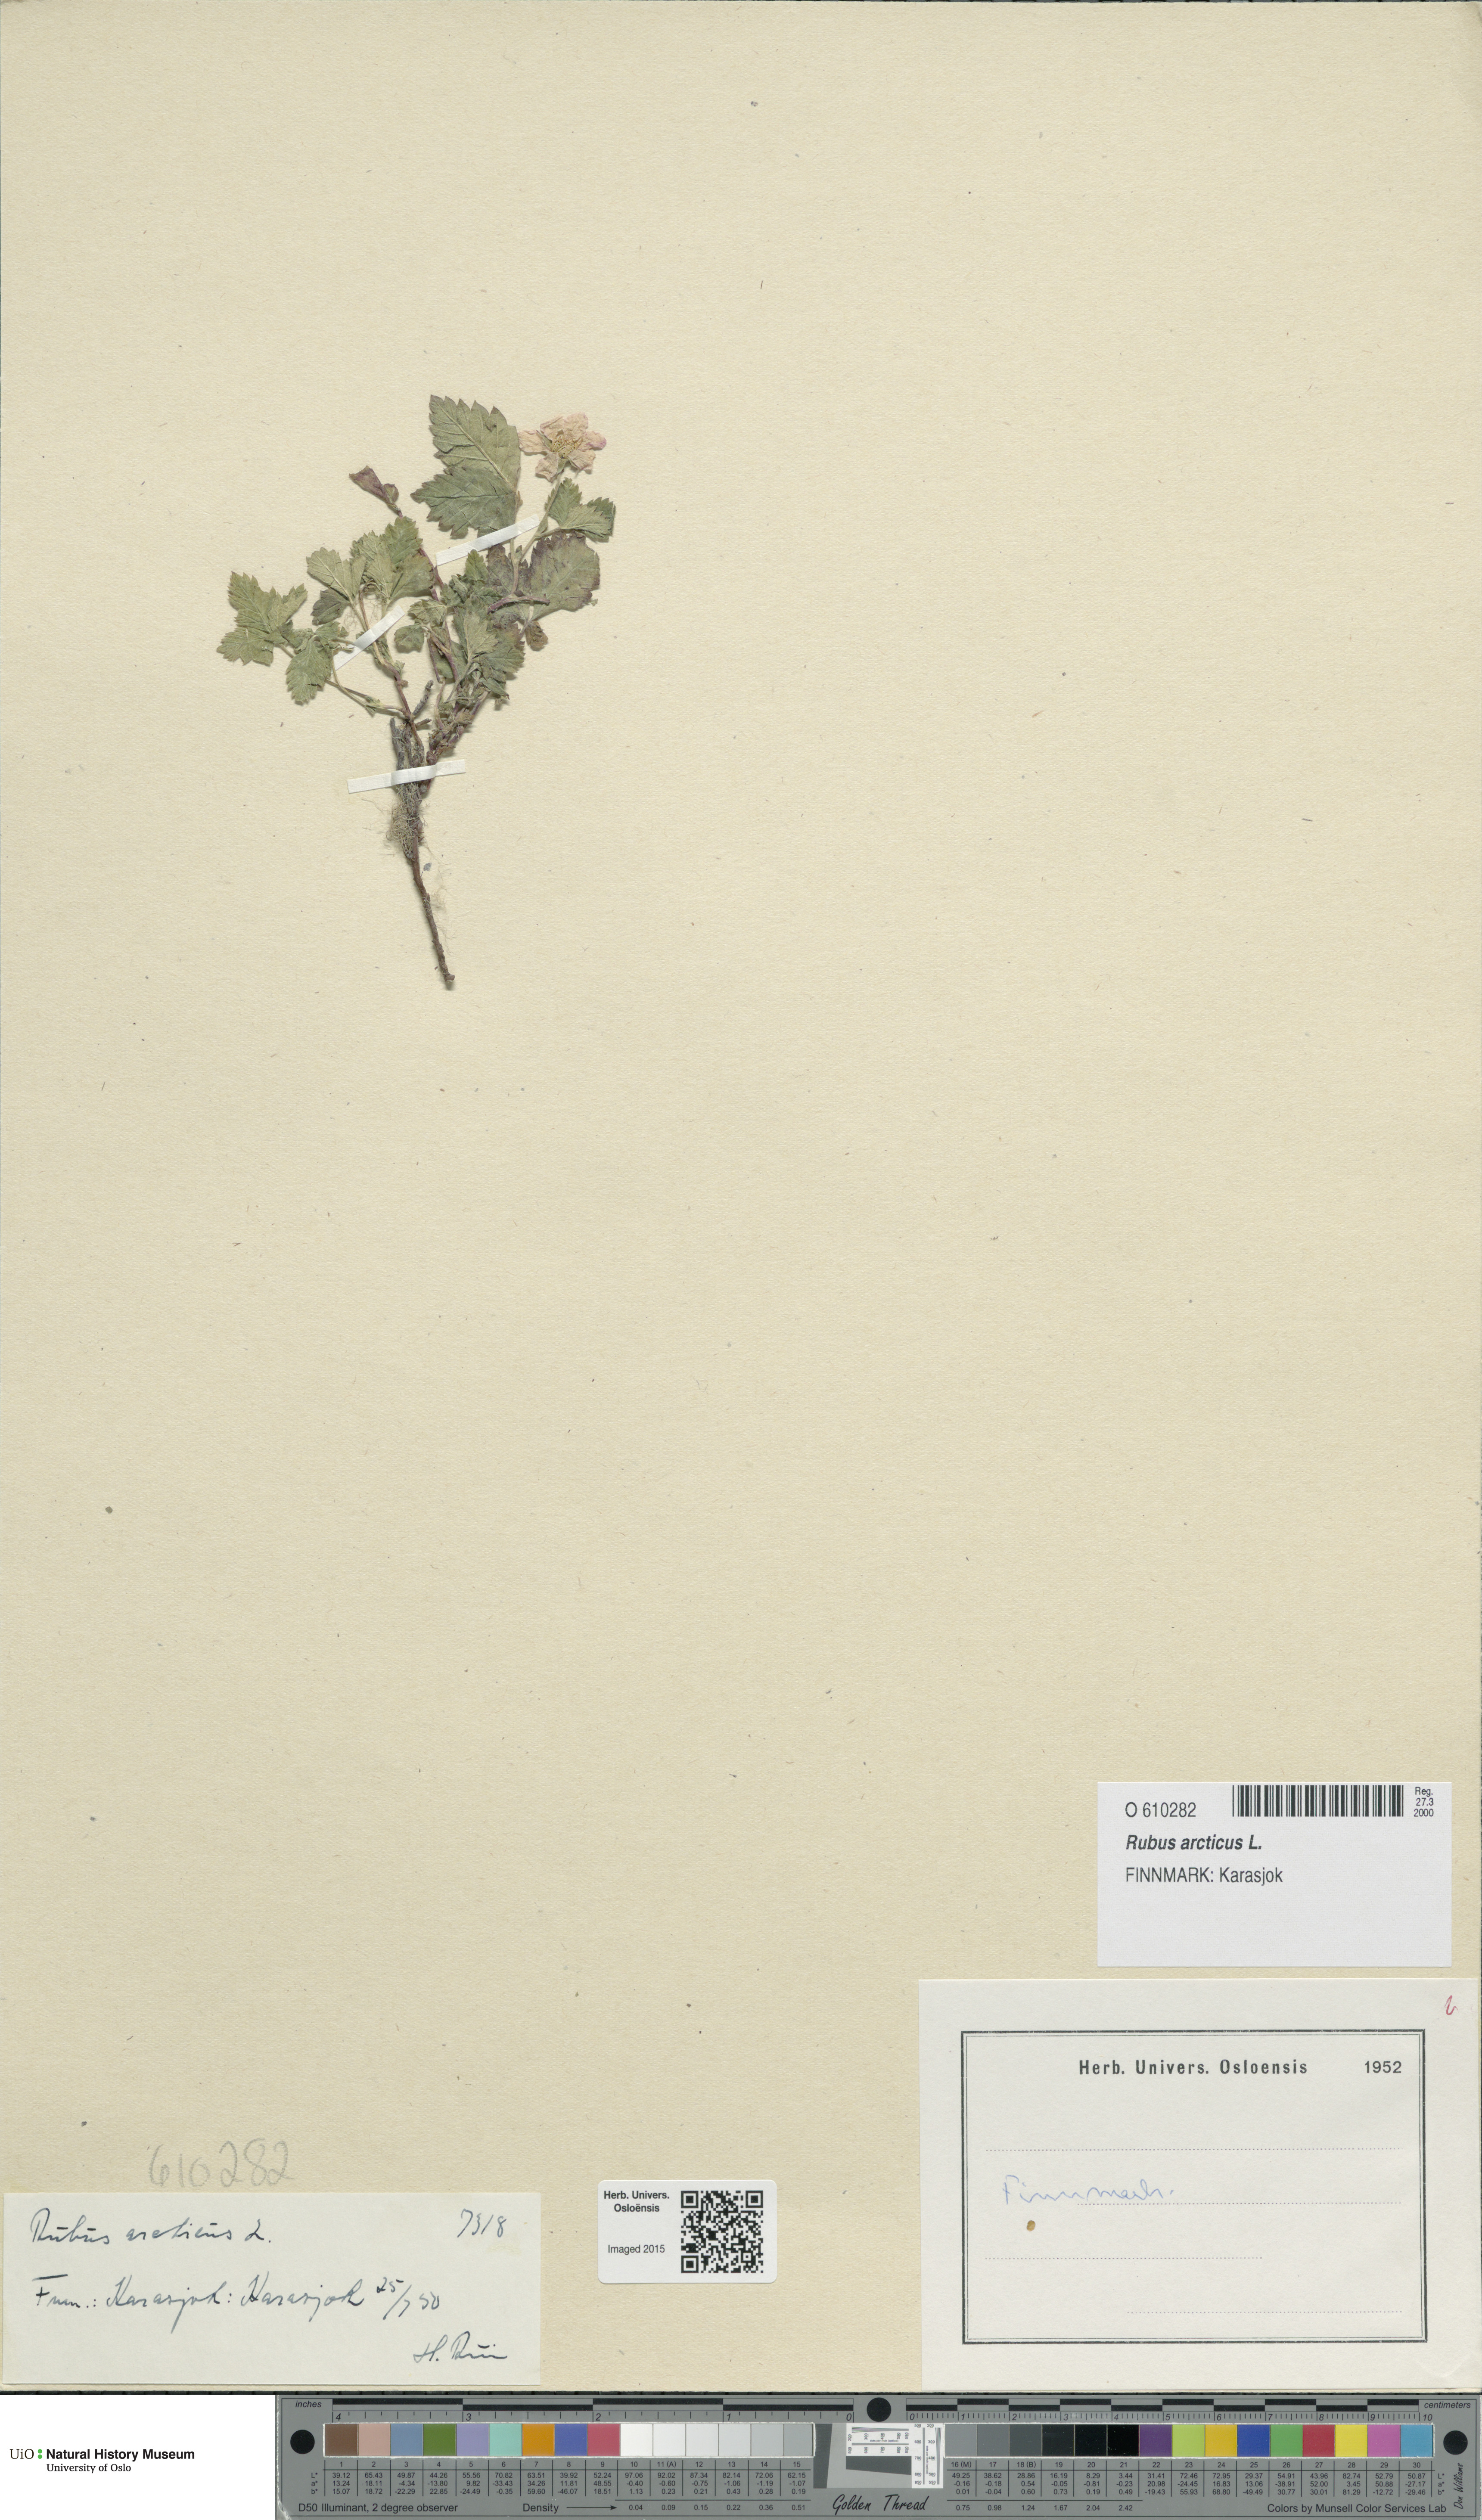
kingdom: Plantae
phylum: Tracheophyta
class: Magnoliopsida
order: Rosales
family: Rosaceae
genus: Rubus
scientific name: Rubus arcticus
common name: Arctic bramble
